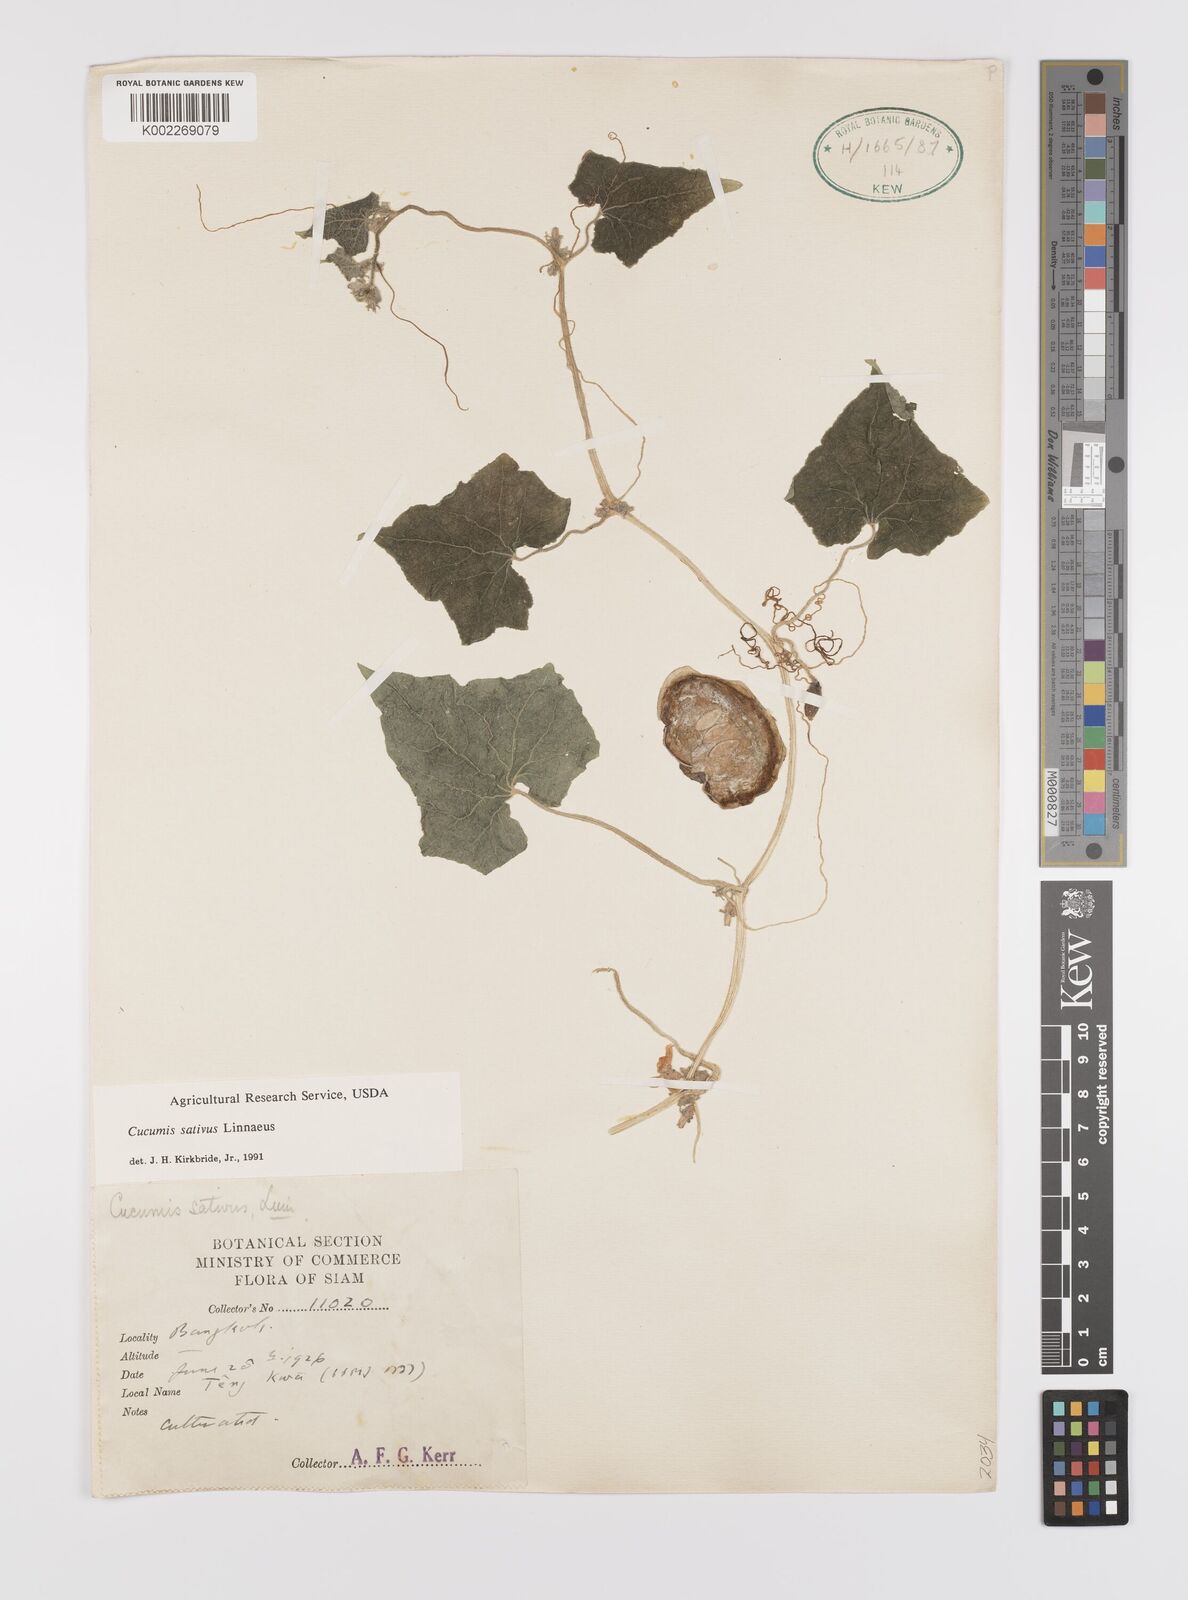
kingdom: Plantae
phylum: Tracheophyta
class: Magnoliopsida
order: Cucurbitales
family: Cucurbitaceae
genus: Cucumis
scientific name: Cucumis sativus
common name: Cucumber
